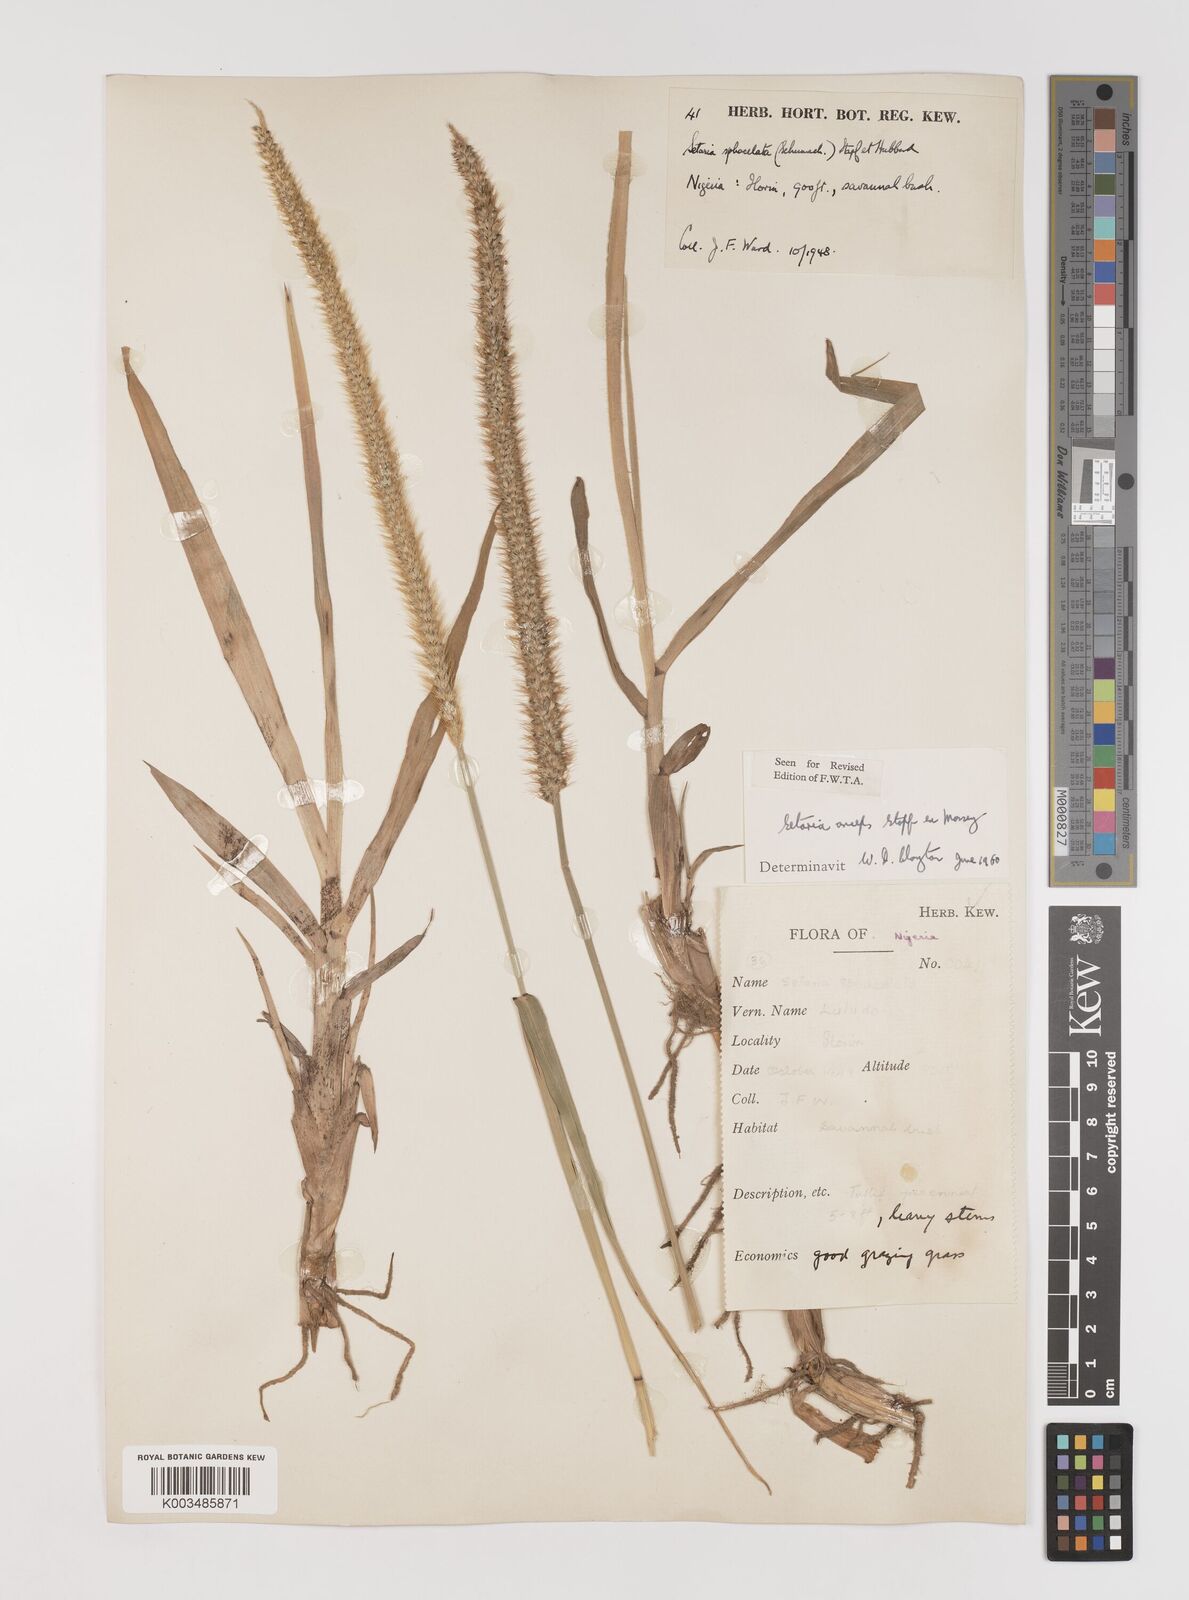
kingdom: Plantae
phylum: Tracheophyta
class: Liliopsida
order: Poales
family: Poaceae
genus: Setaria
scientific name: Setaria sphacelata
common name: African bristlegrass
